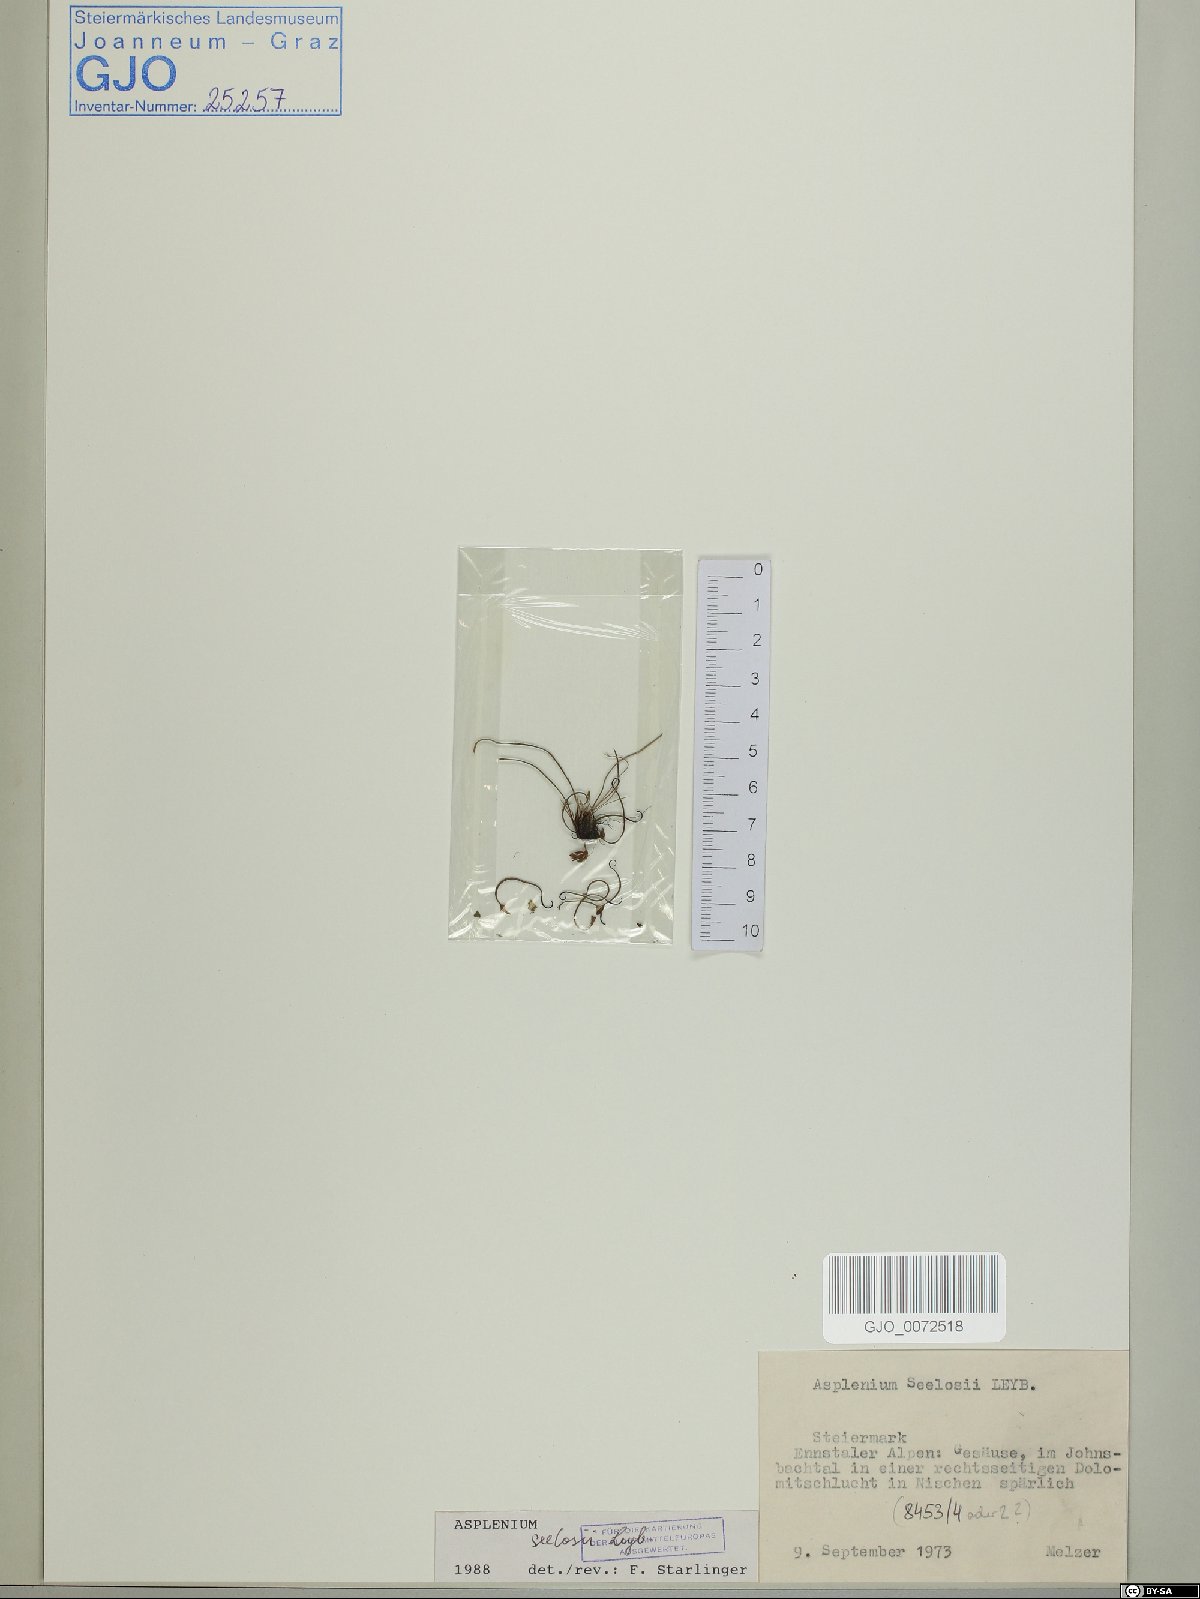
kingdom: Plantae
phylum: Tracheophyta
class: Polypodiopsida
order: Polypodiales
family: Aspleniaceae
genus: Asplenium
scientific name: Asplenium seelosii
